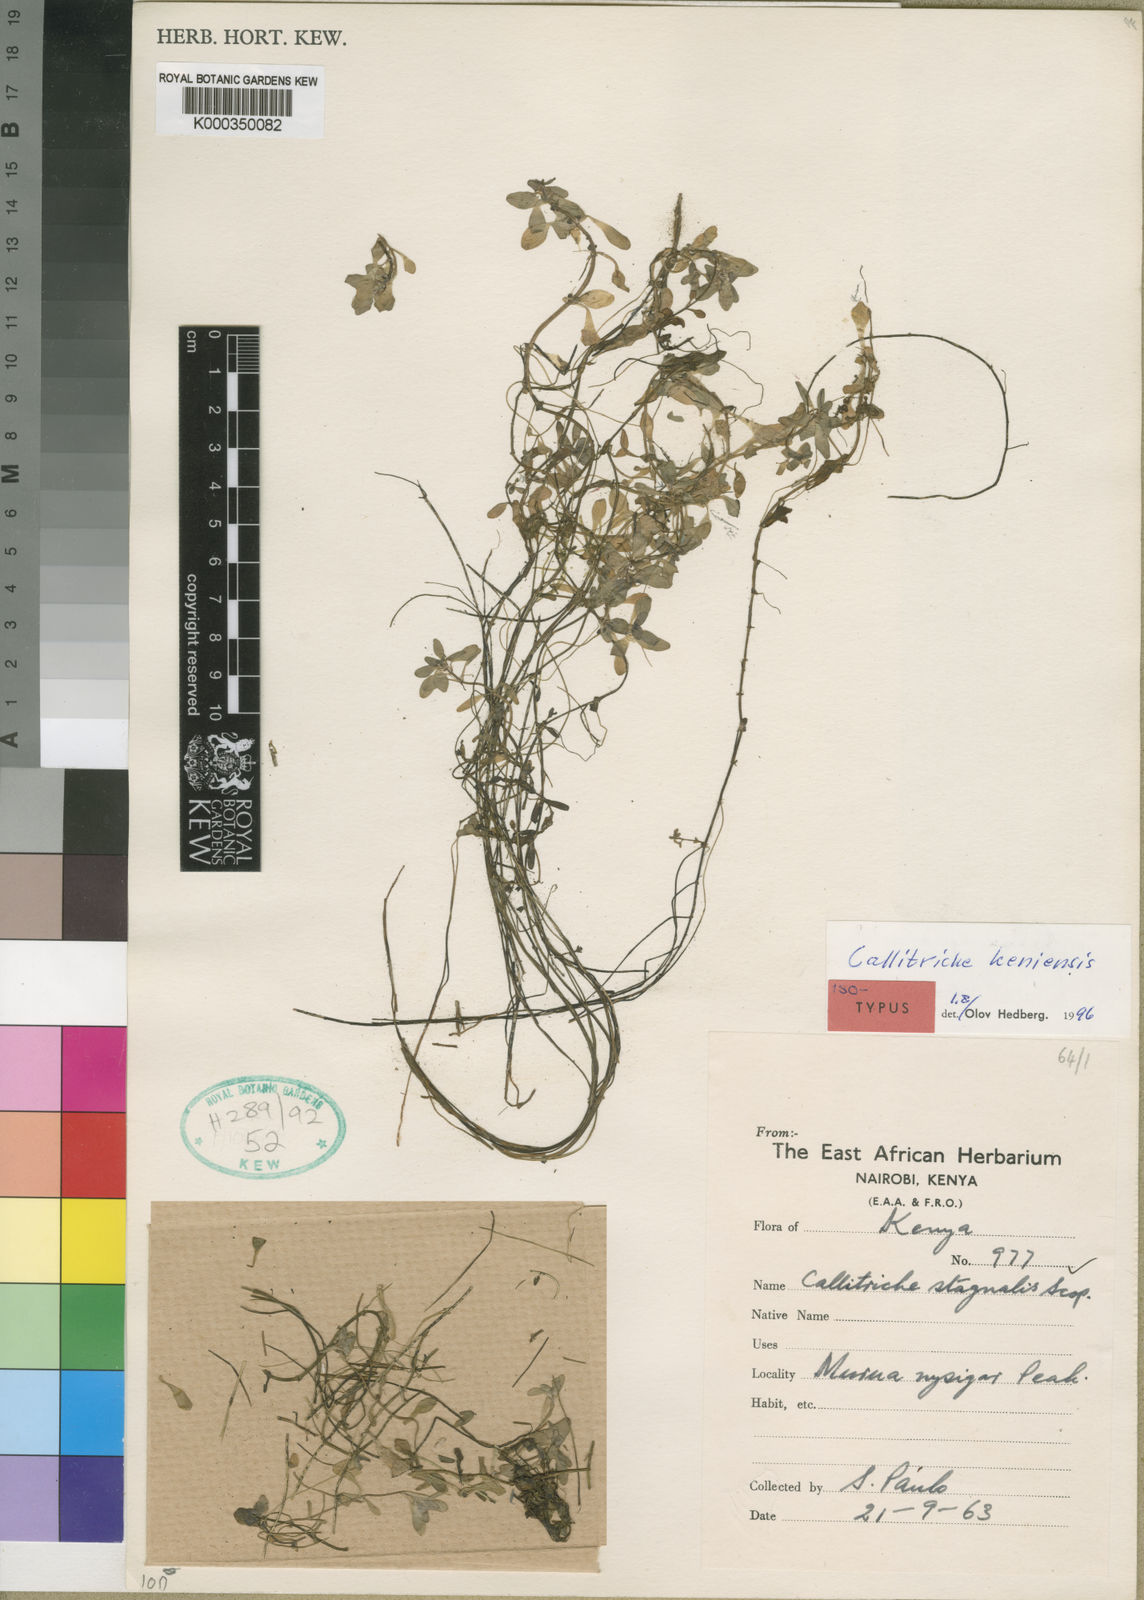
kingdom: Plantae
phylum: Tracheophyta
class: Magnoliopsida
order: Lamiales
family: Plantaginaceae
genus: Callitriche
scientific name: Callitriche keniensis
